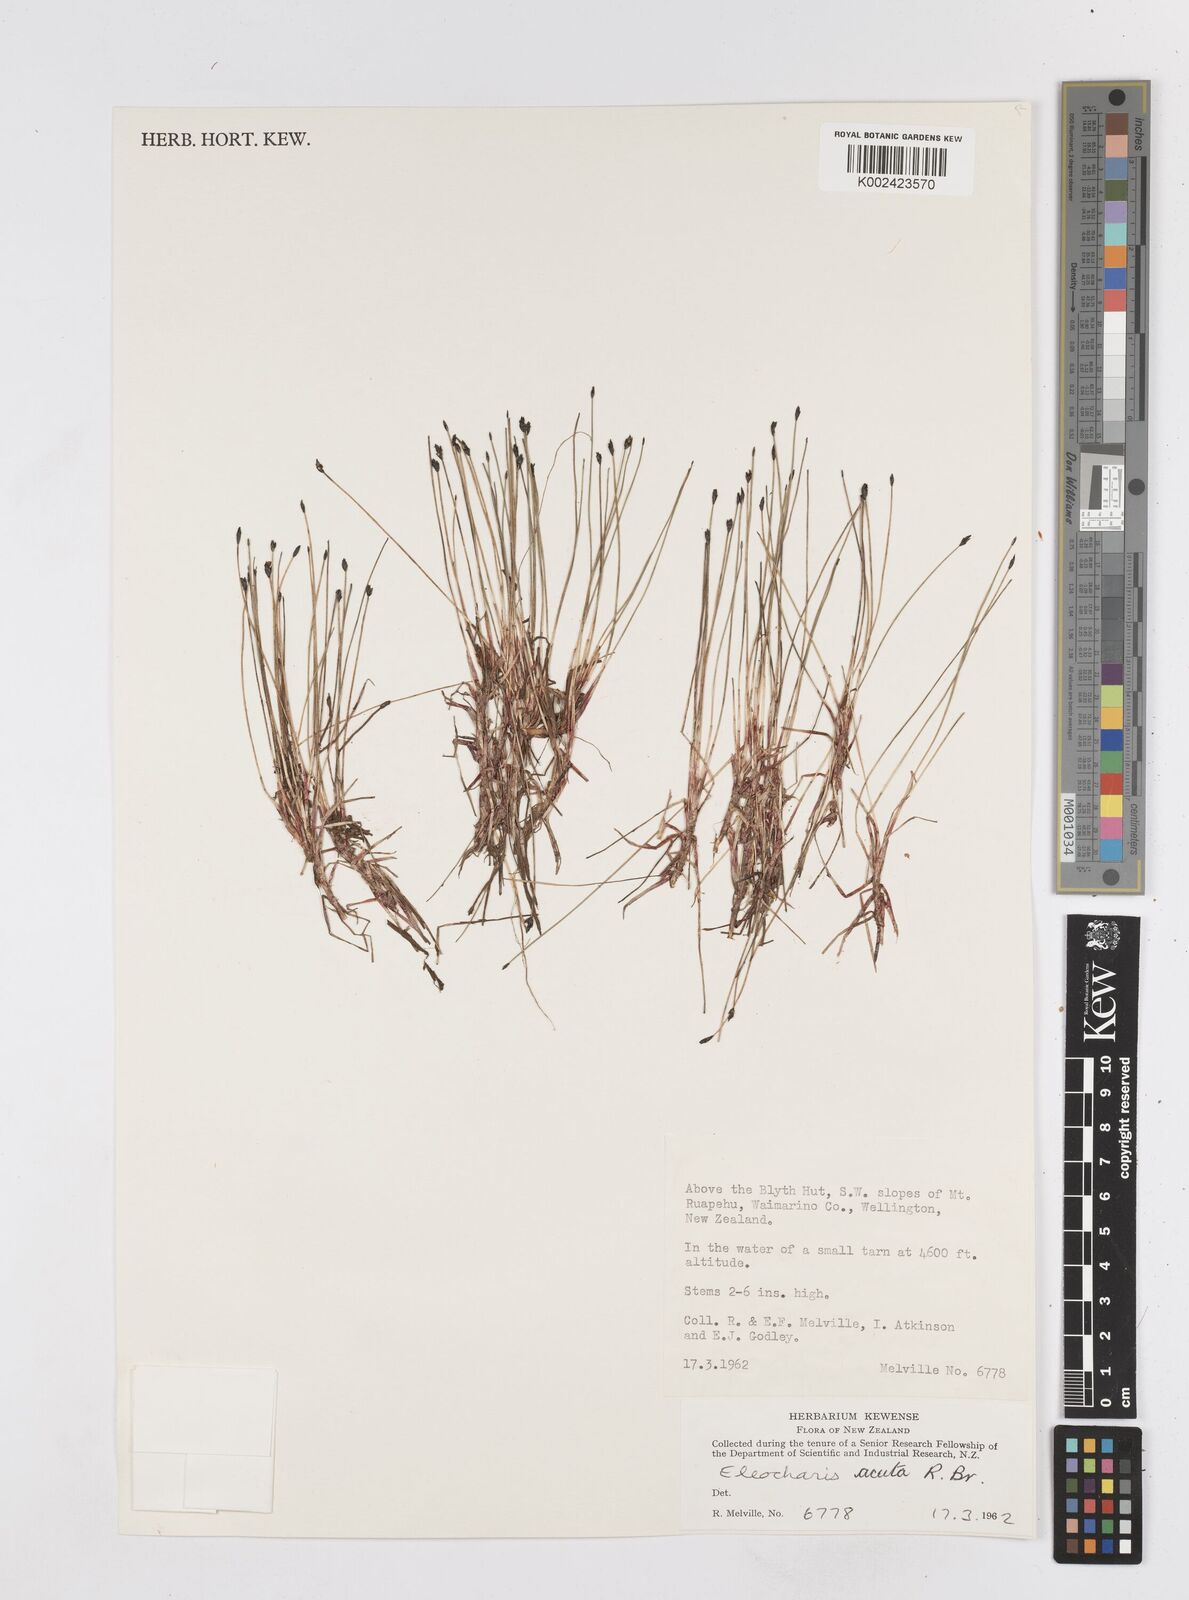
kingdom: Plantae
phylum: Tracheophyta
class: Liliopsida
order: Poales
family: Cyperaceae
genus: Eleocharis
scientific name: Eleocharis acuta
